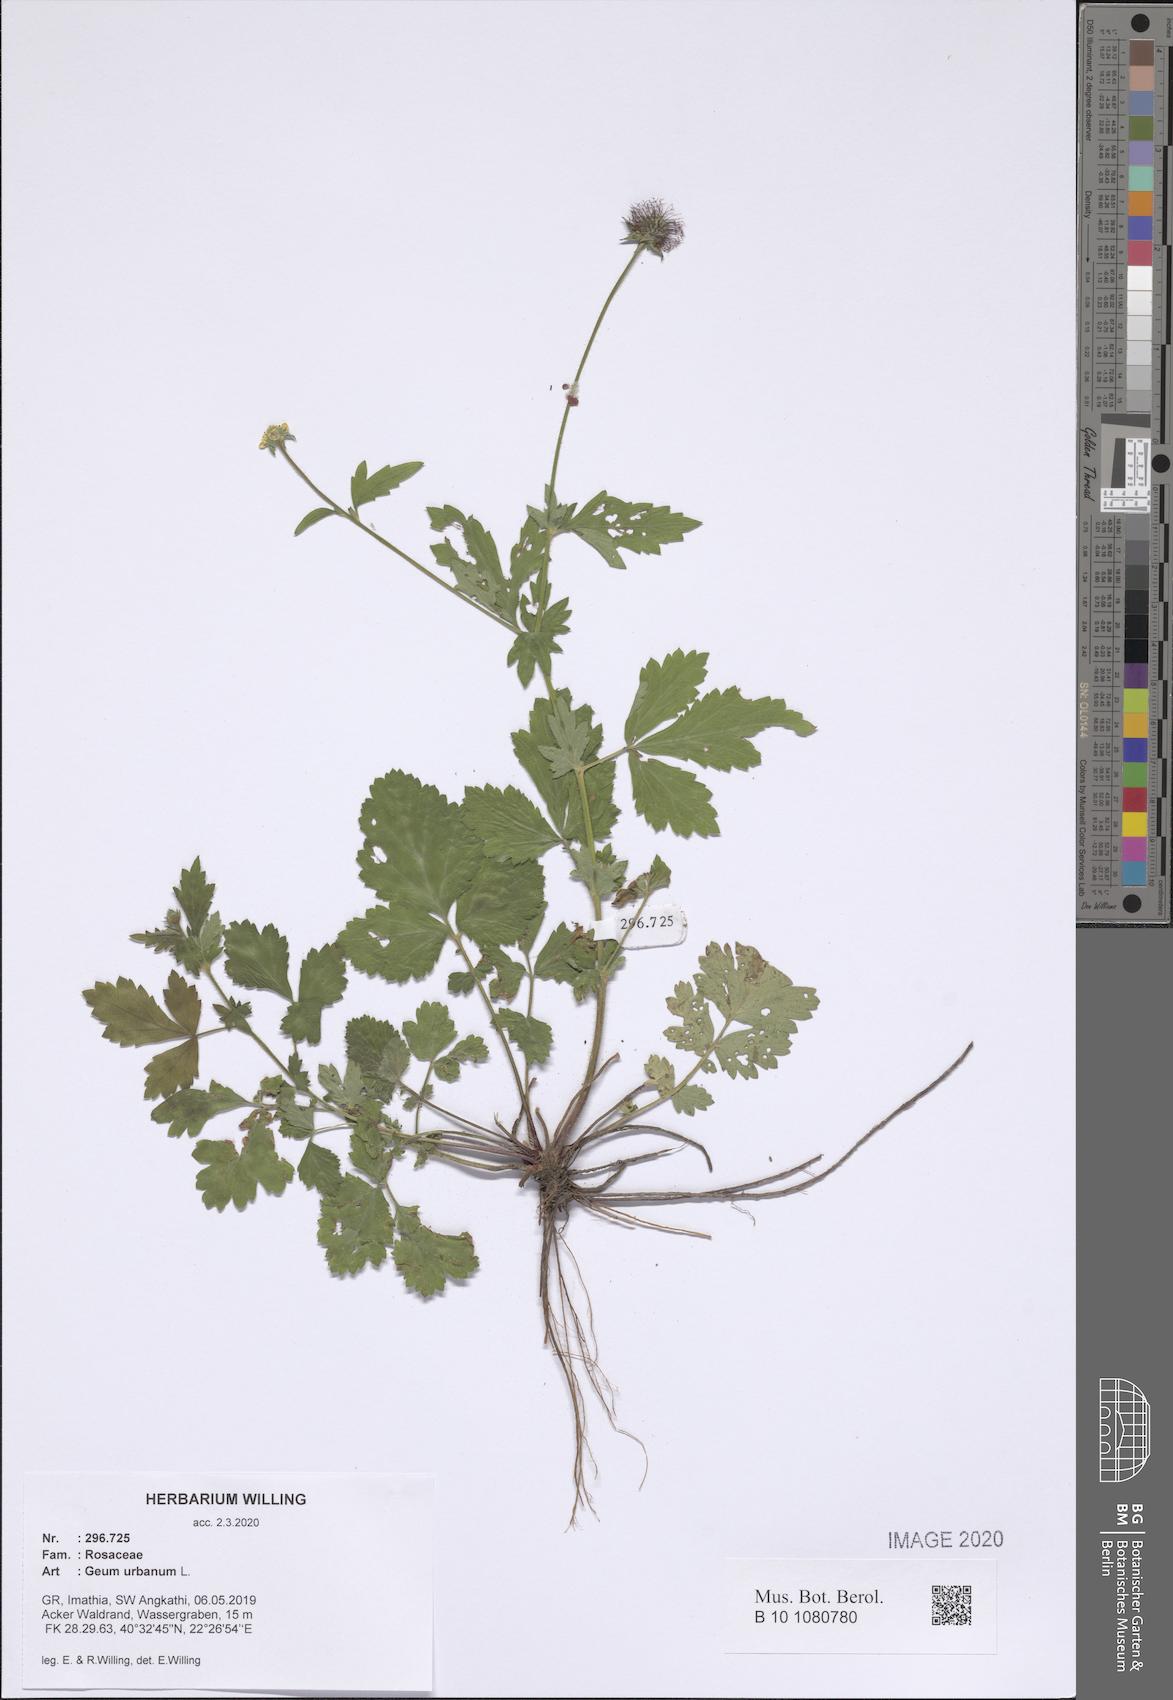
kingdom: Plantae
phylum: Tracheophyta
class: Magnoliopsida
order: Rosales
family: Rosaceae
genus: Geum
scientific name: Geum urbanum
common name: Wood avens
